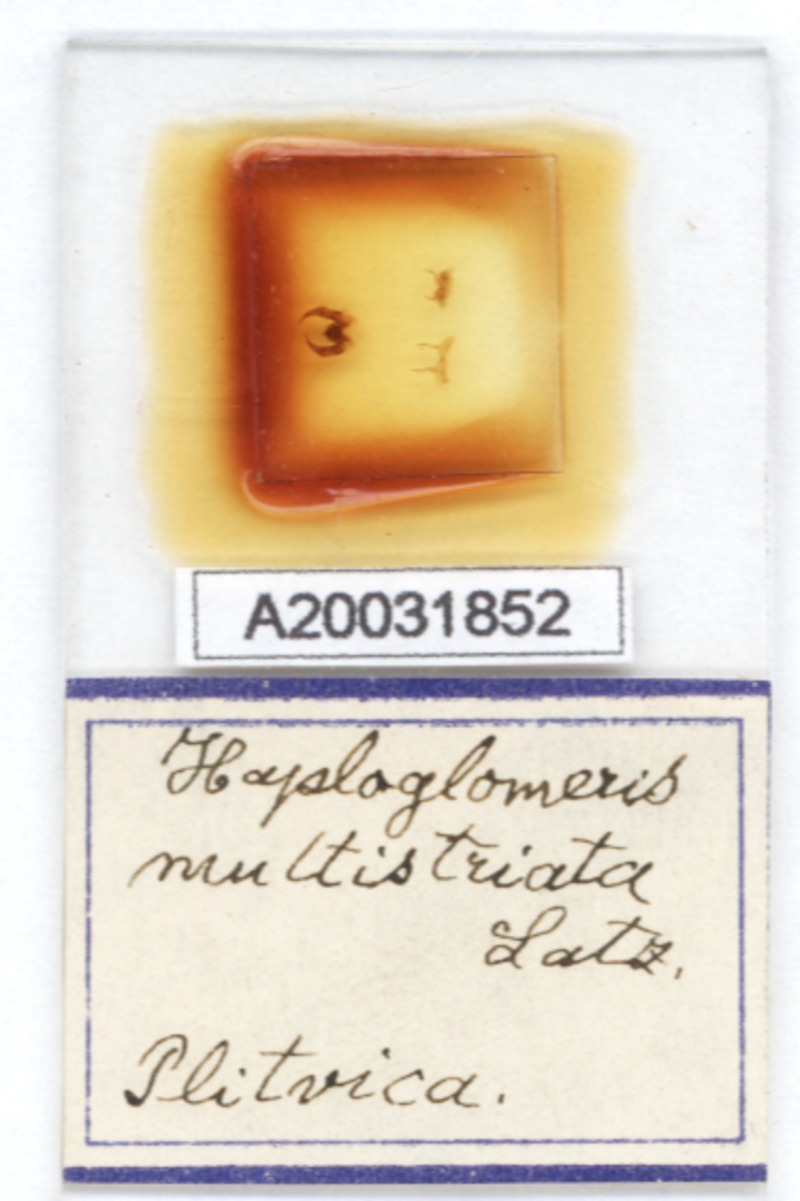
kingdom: Animalia
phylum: Arthropoda
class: Diplopoda
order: Glomerida
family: Glomeridae
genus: Haploglomeris
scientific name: Haploglomeris multistriata
